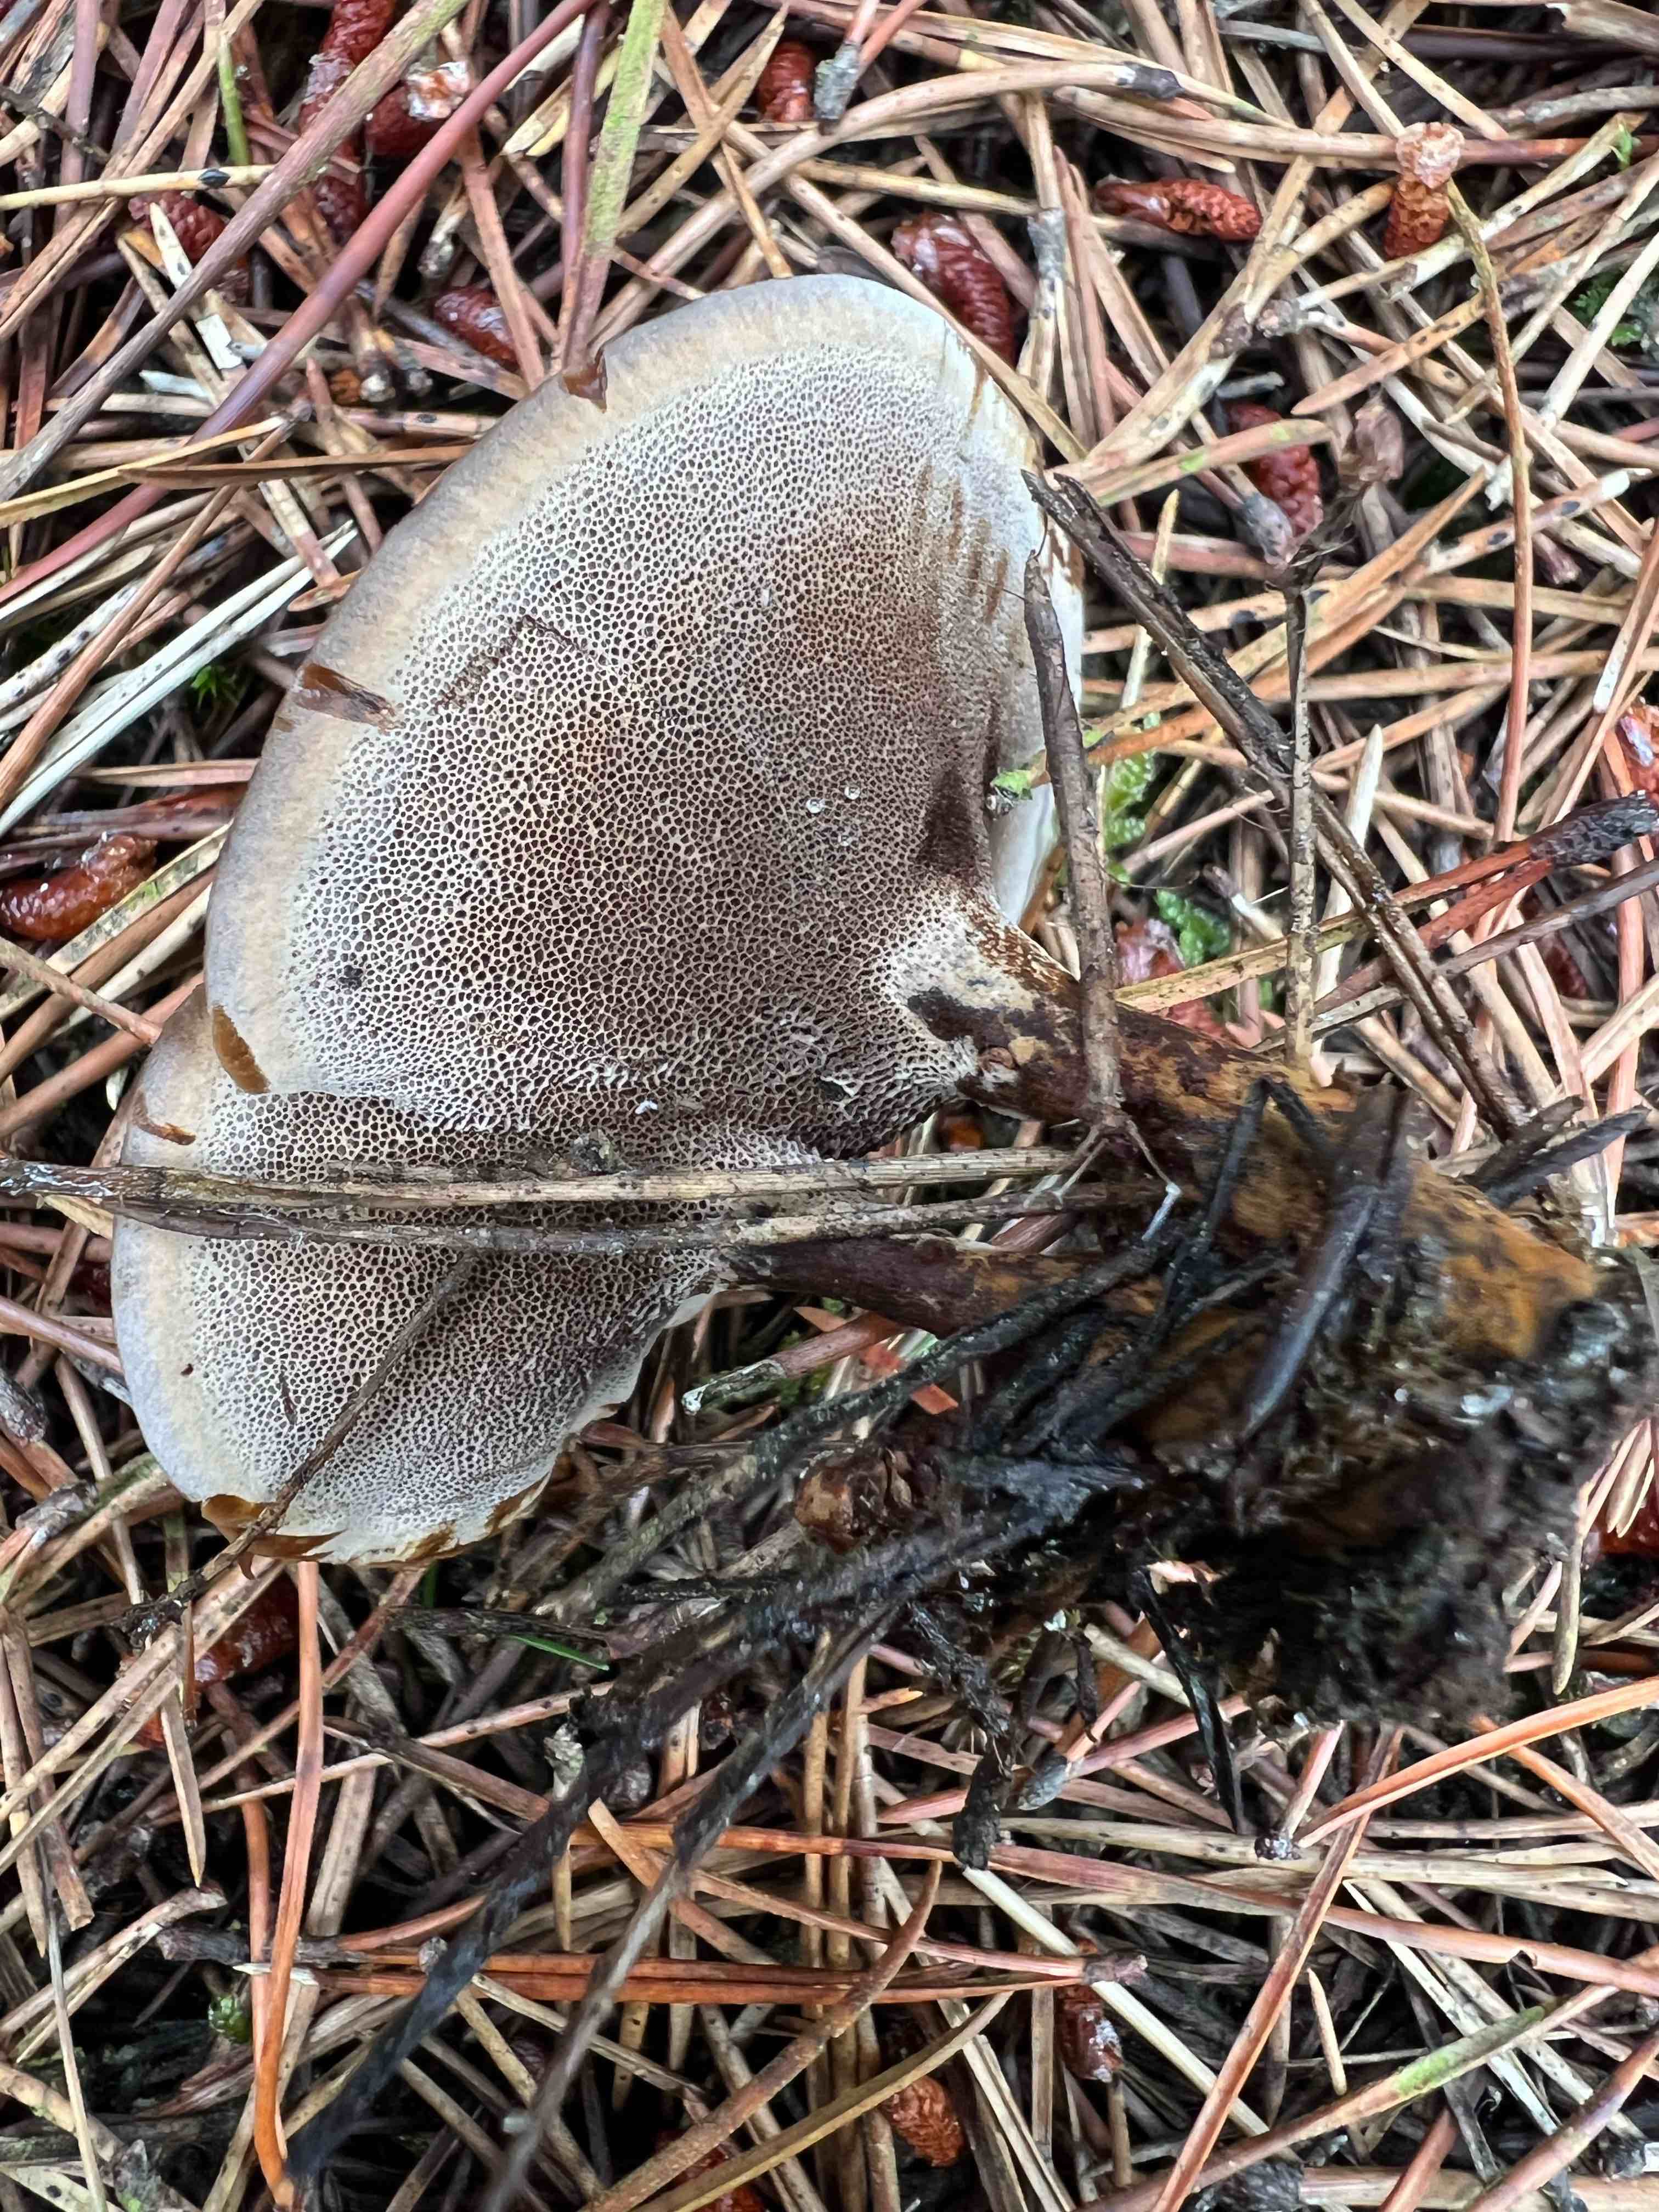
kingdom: Fungi
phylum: Basidiomycota
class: Agaricomycetes
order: Hymenochaetales
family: Hymenochaetaceae
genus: Coltricia
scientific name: Coltricia perennis
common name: almindelig sandporesvamp
